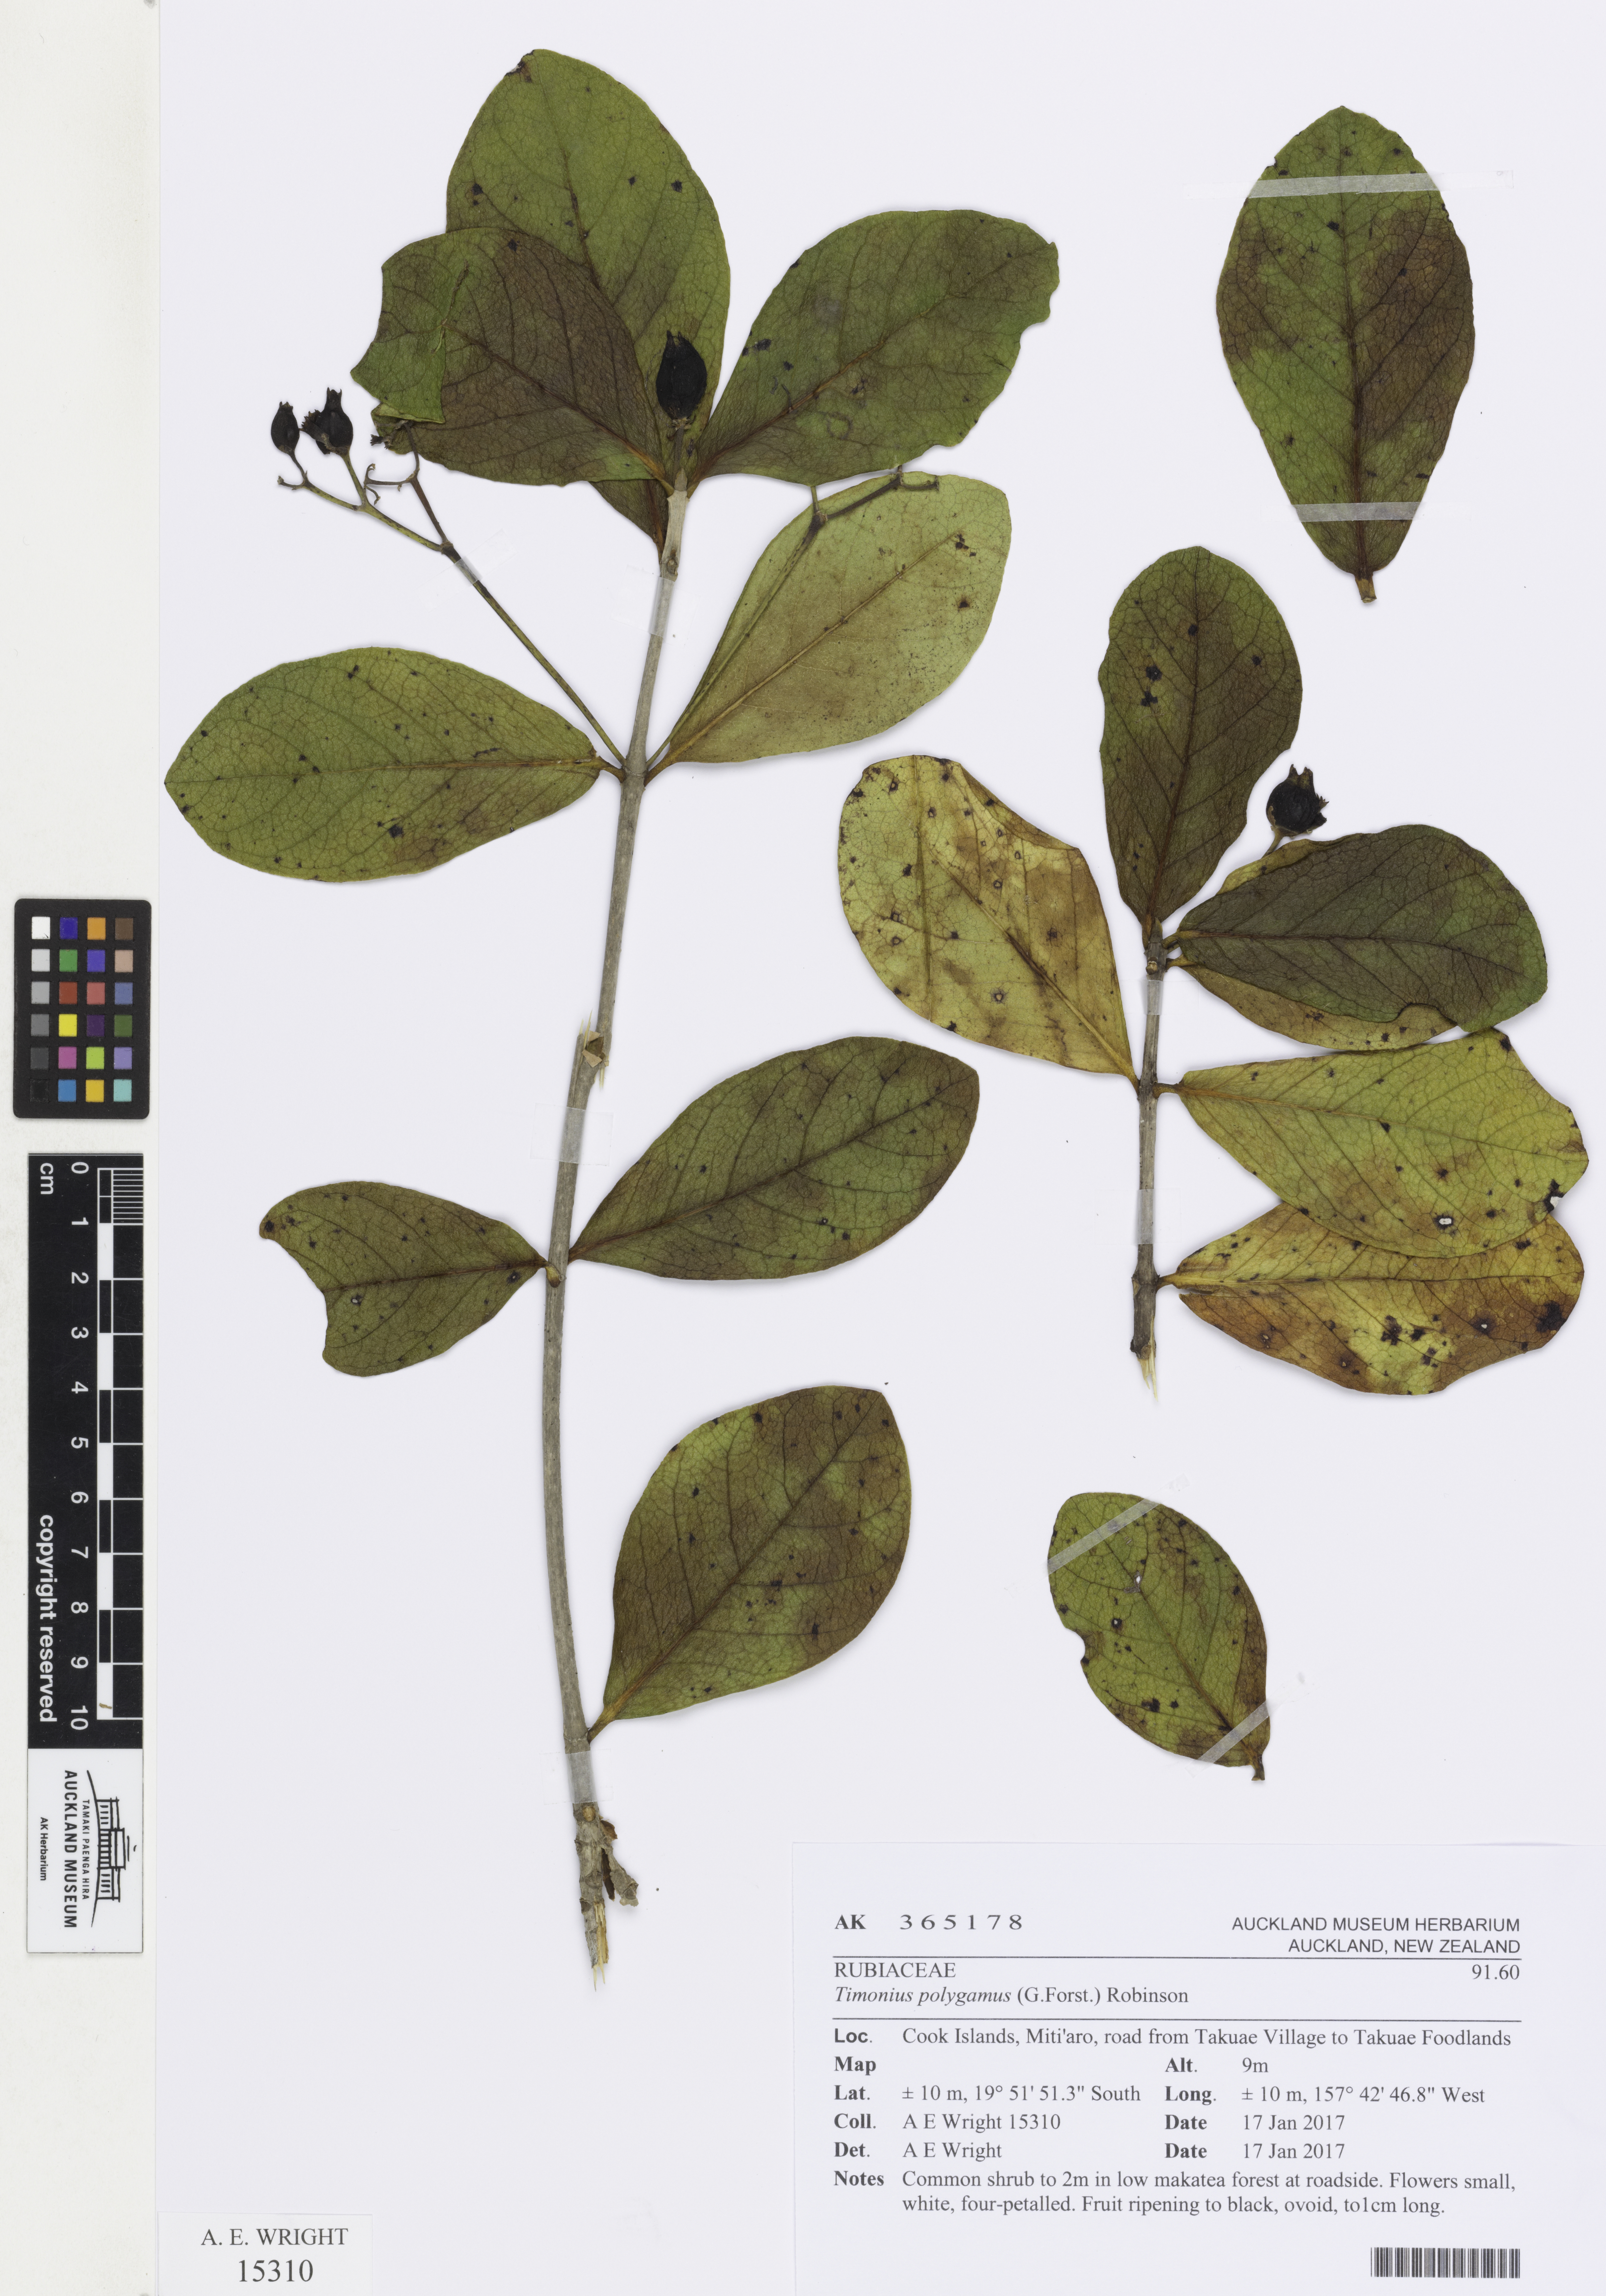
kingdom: Plantae
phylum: Tracheophyta
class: Magnoliopsida
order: Gentianales
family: Rubiaceae
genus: Timonius
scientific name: Timonius uniflorus
